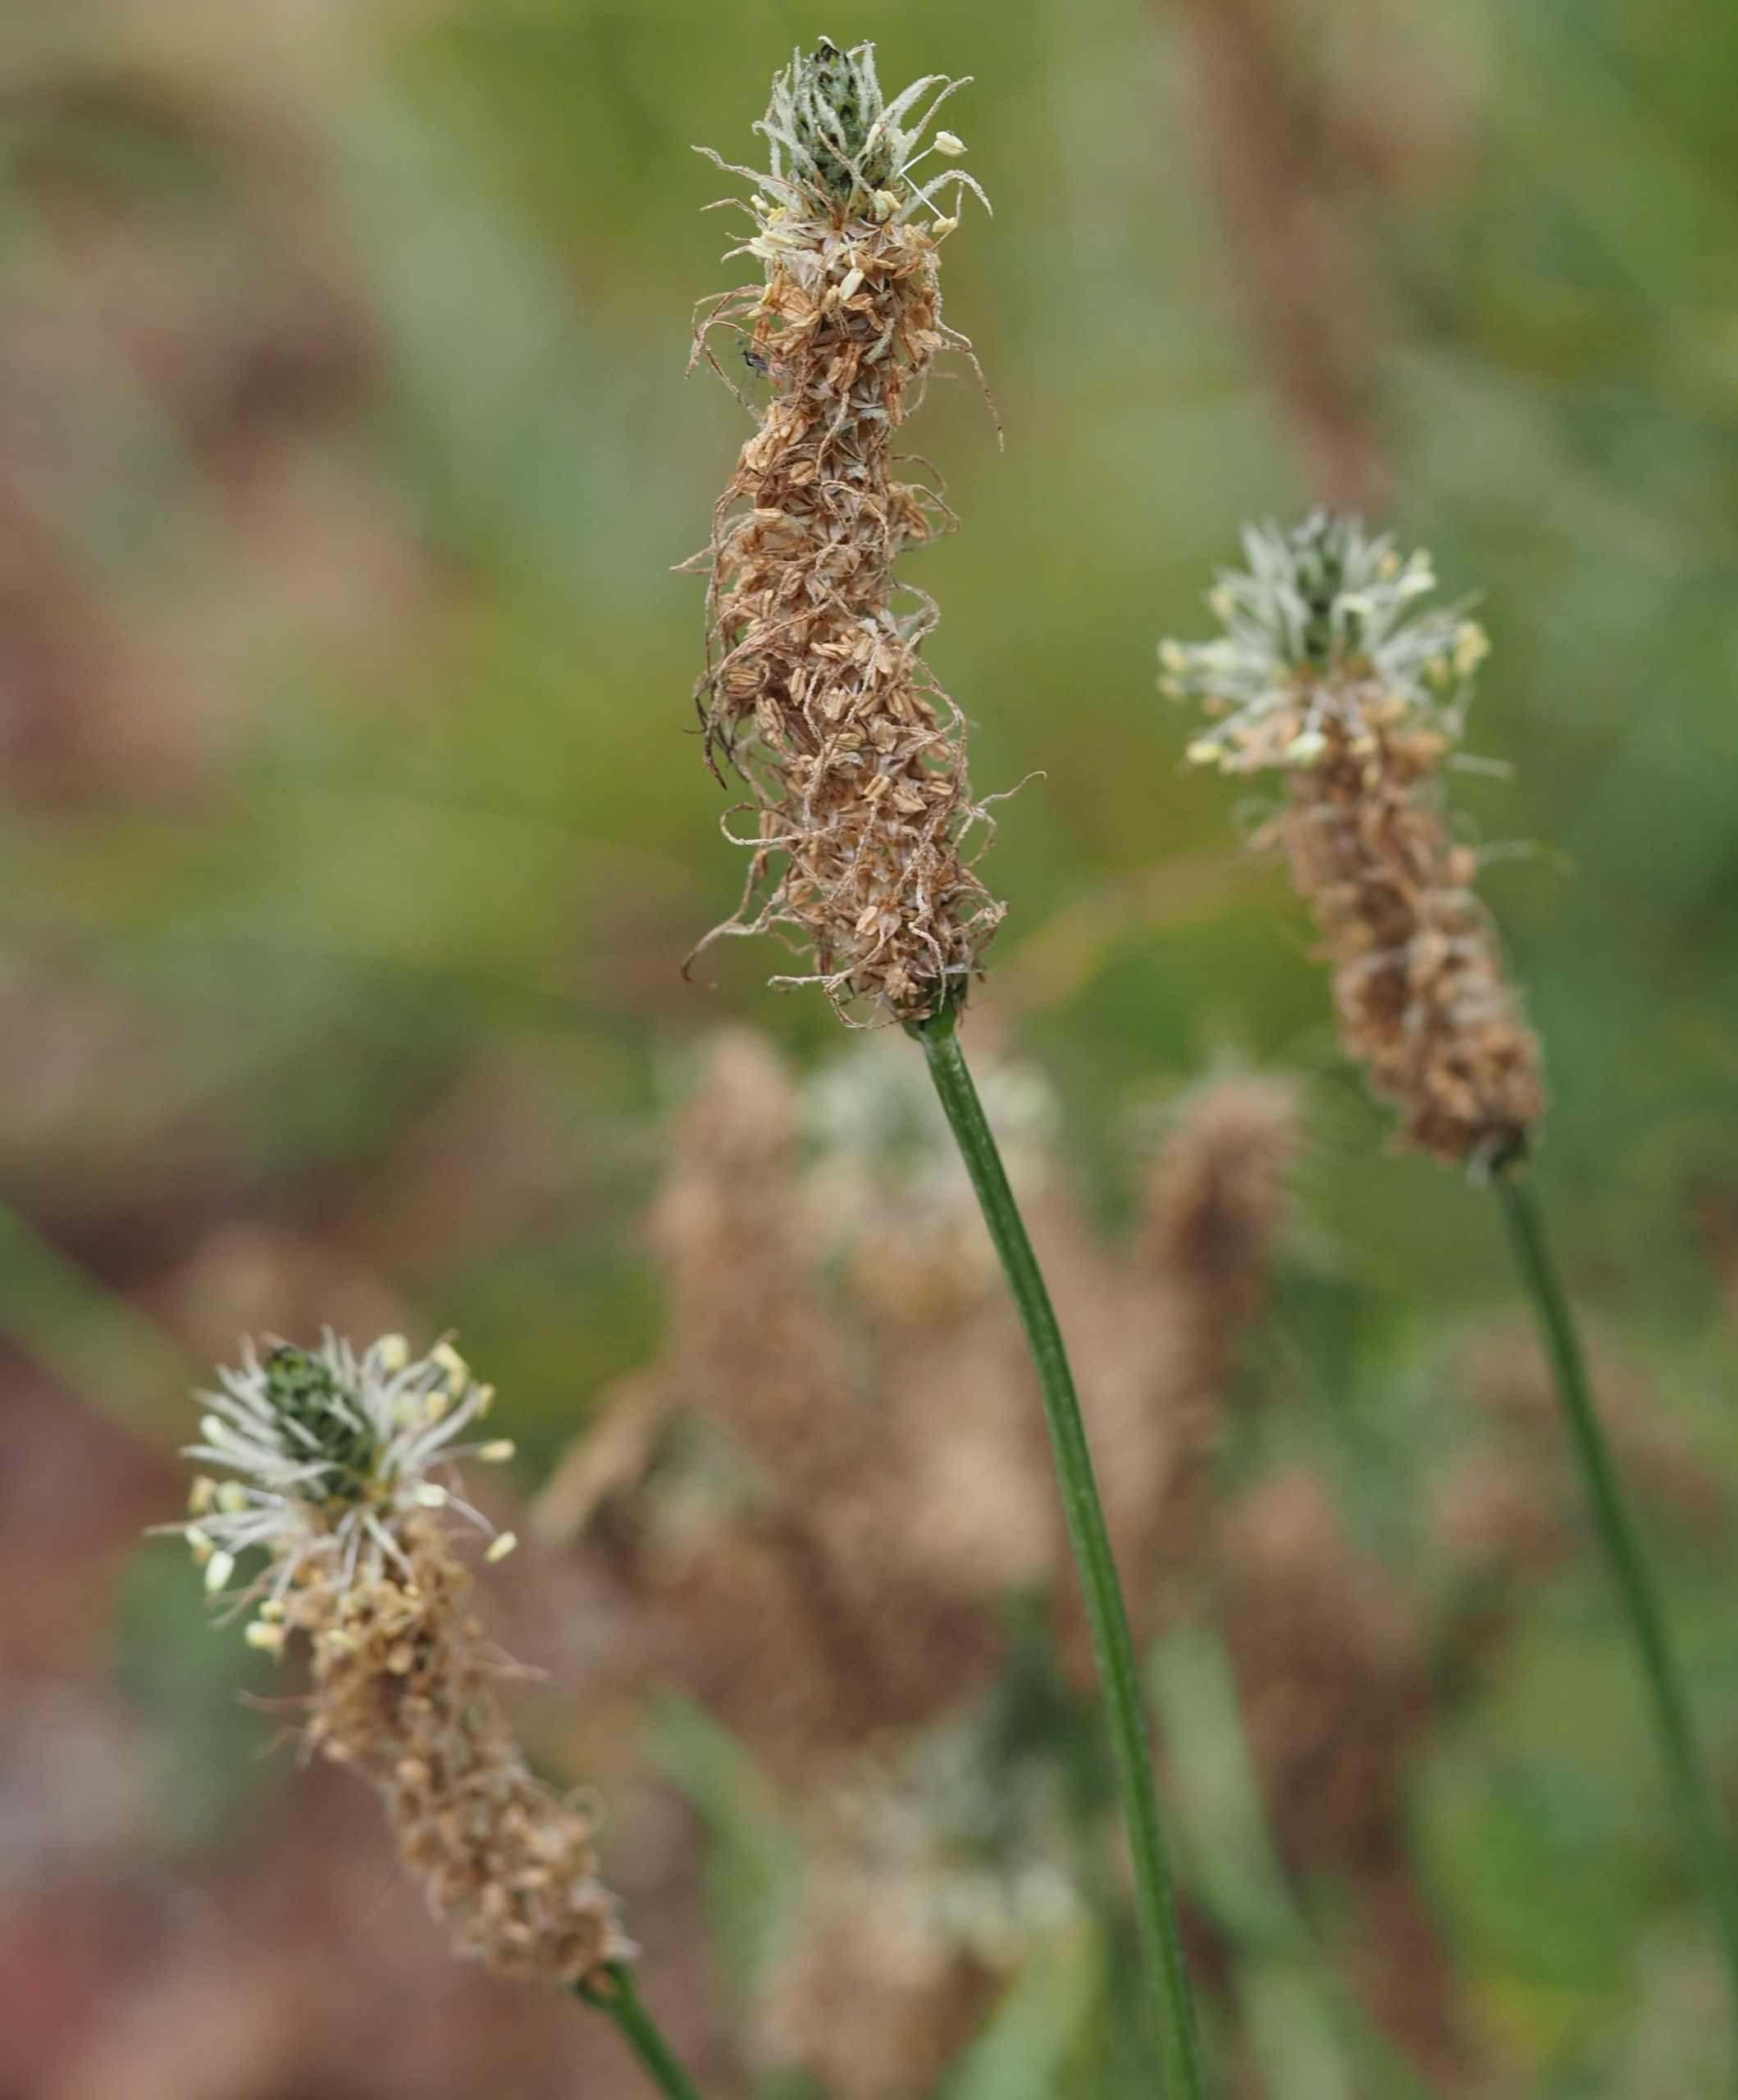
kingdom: Plantae
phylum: Tracheophyta
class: Magnoliopsida
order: Lamiales
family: Plantaginaceae
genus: Plantago
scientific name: Plantago lanceolata
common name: Lancet-vejbred
